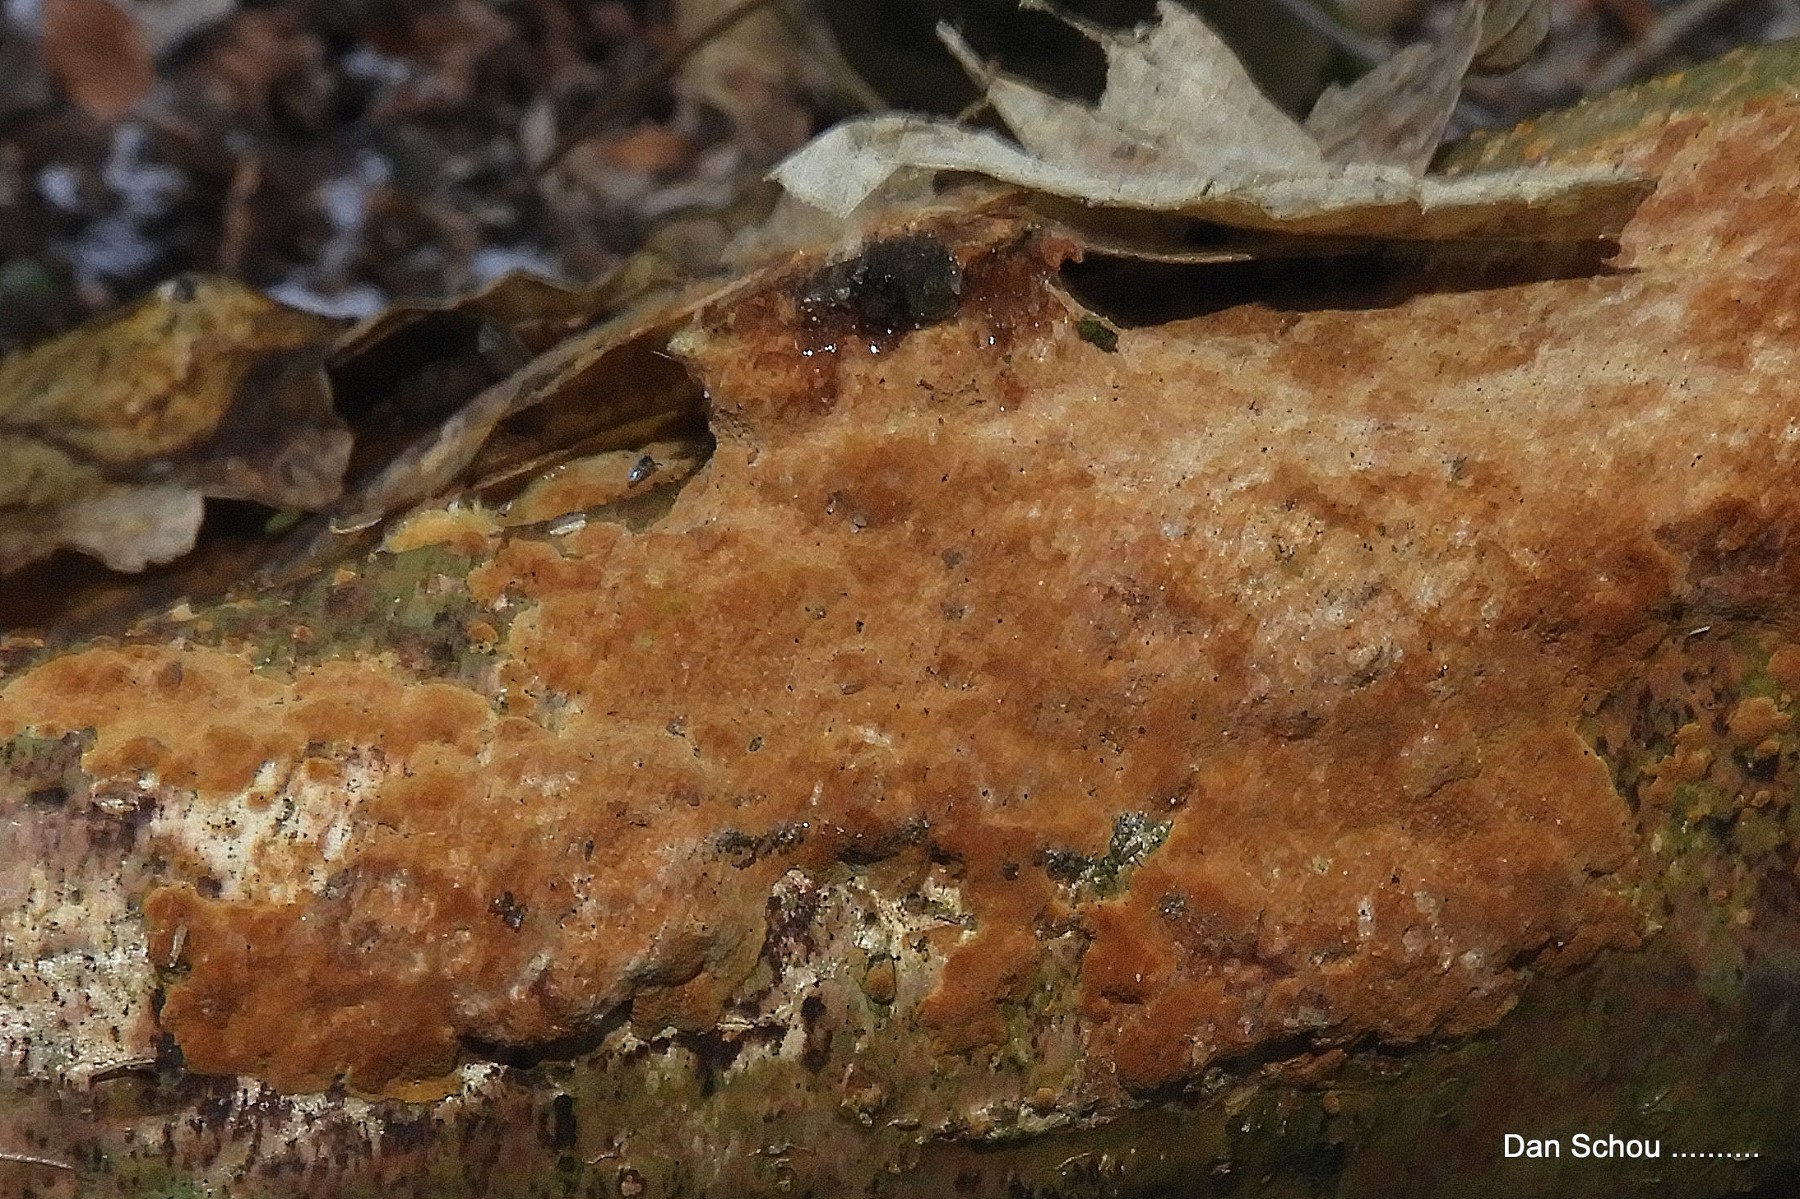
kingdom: Fungi
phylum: Basidiomycota
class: Agaricomycetes
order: Hymenochaetales
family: Hymenochaetaceae
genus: Fuscoporia
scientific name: Fuscoporia ferrea
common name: skorpe-ildporesvamp
